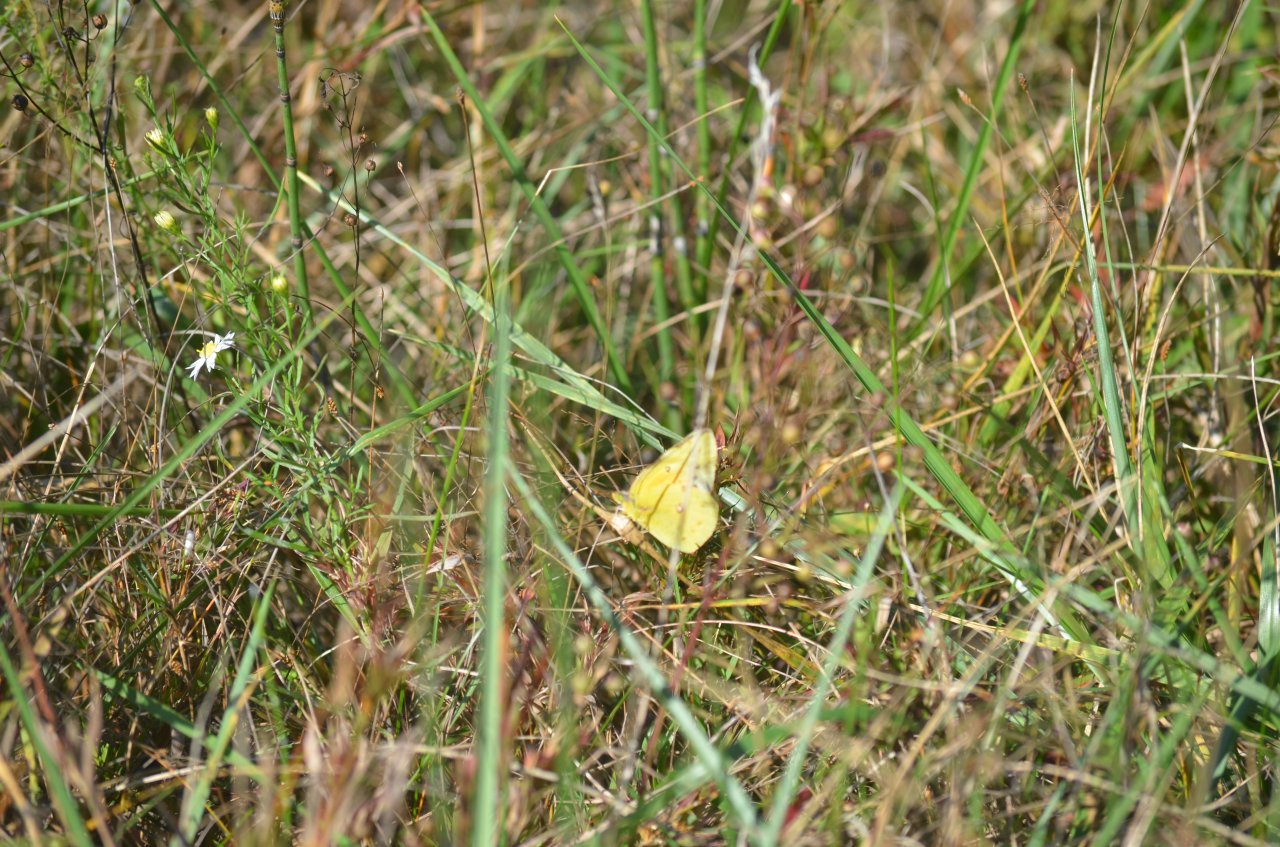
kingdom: Animalia
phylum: Arthropoda
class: Insecta
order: Lepidoptera
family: Pieridae
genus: Colias
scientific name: Colias philodice
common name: Clouded Sulphur
